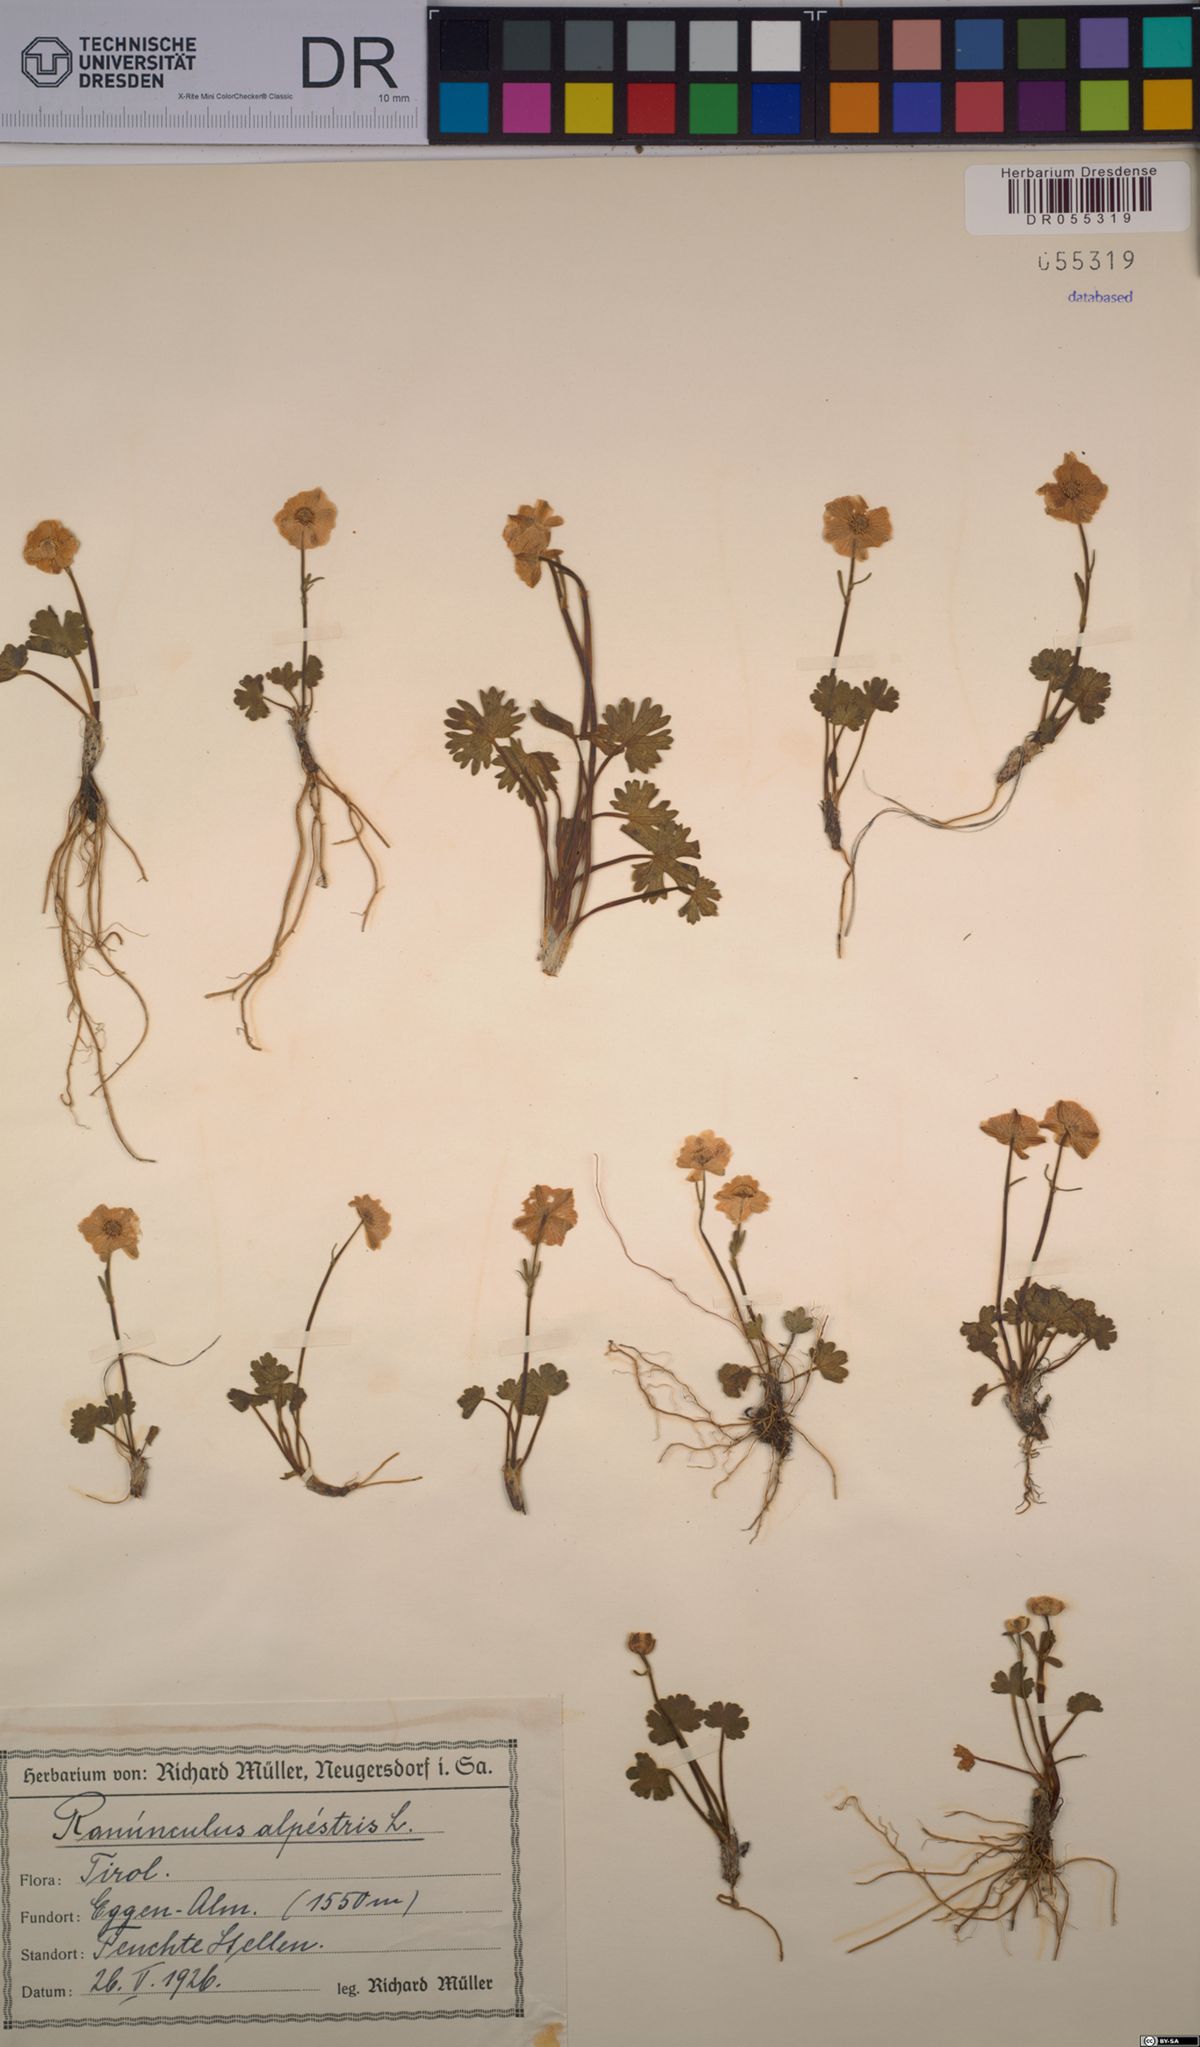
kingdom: Plantae
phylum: Tracheophyta
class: Magnoliopsida
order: Ranunculales
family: Ranunculaceae
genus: Ranunculus
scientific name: Ranunculus alpestris
